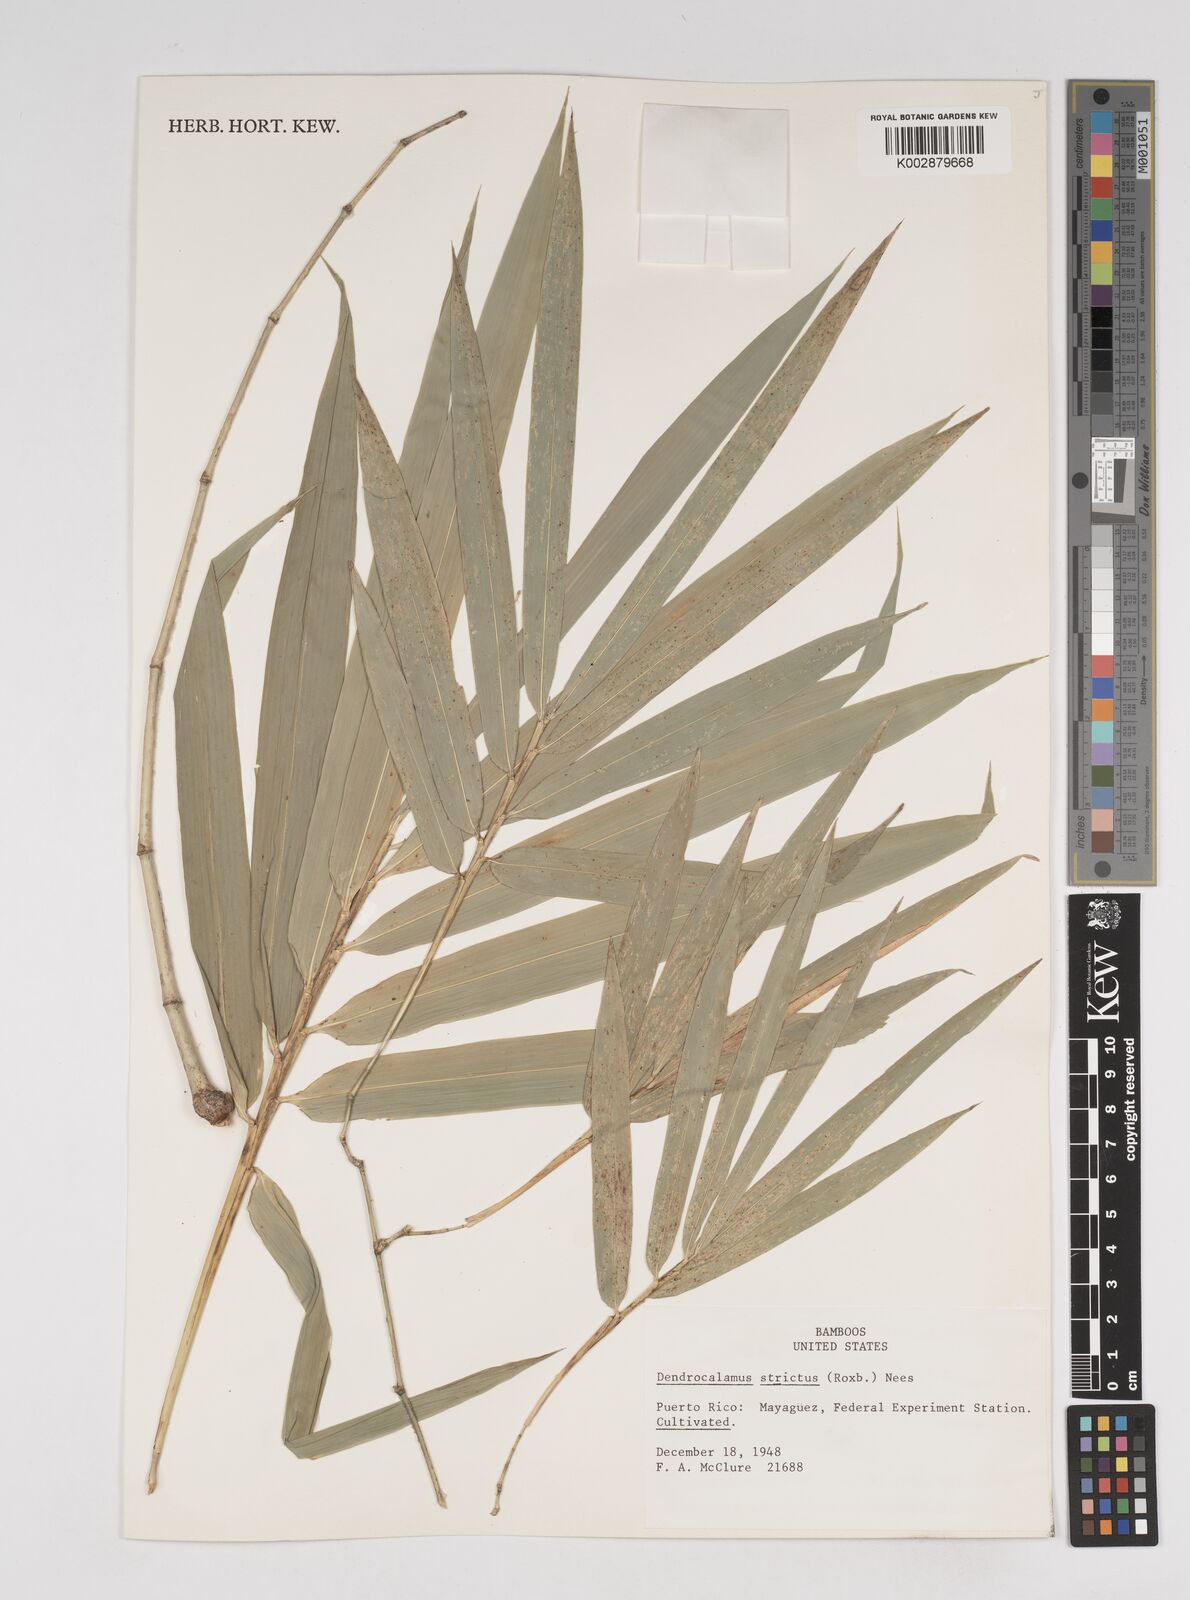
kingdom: Plantae
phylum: Tracheophyta
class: Liliopsida
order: Poales
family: Poaceae
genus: Dendrocalamus
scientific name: Dendrocalamus strictus
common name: Male bamboo
